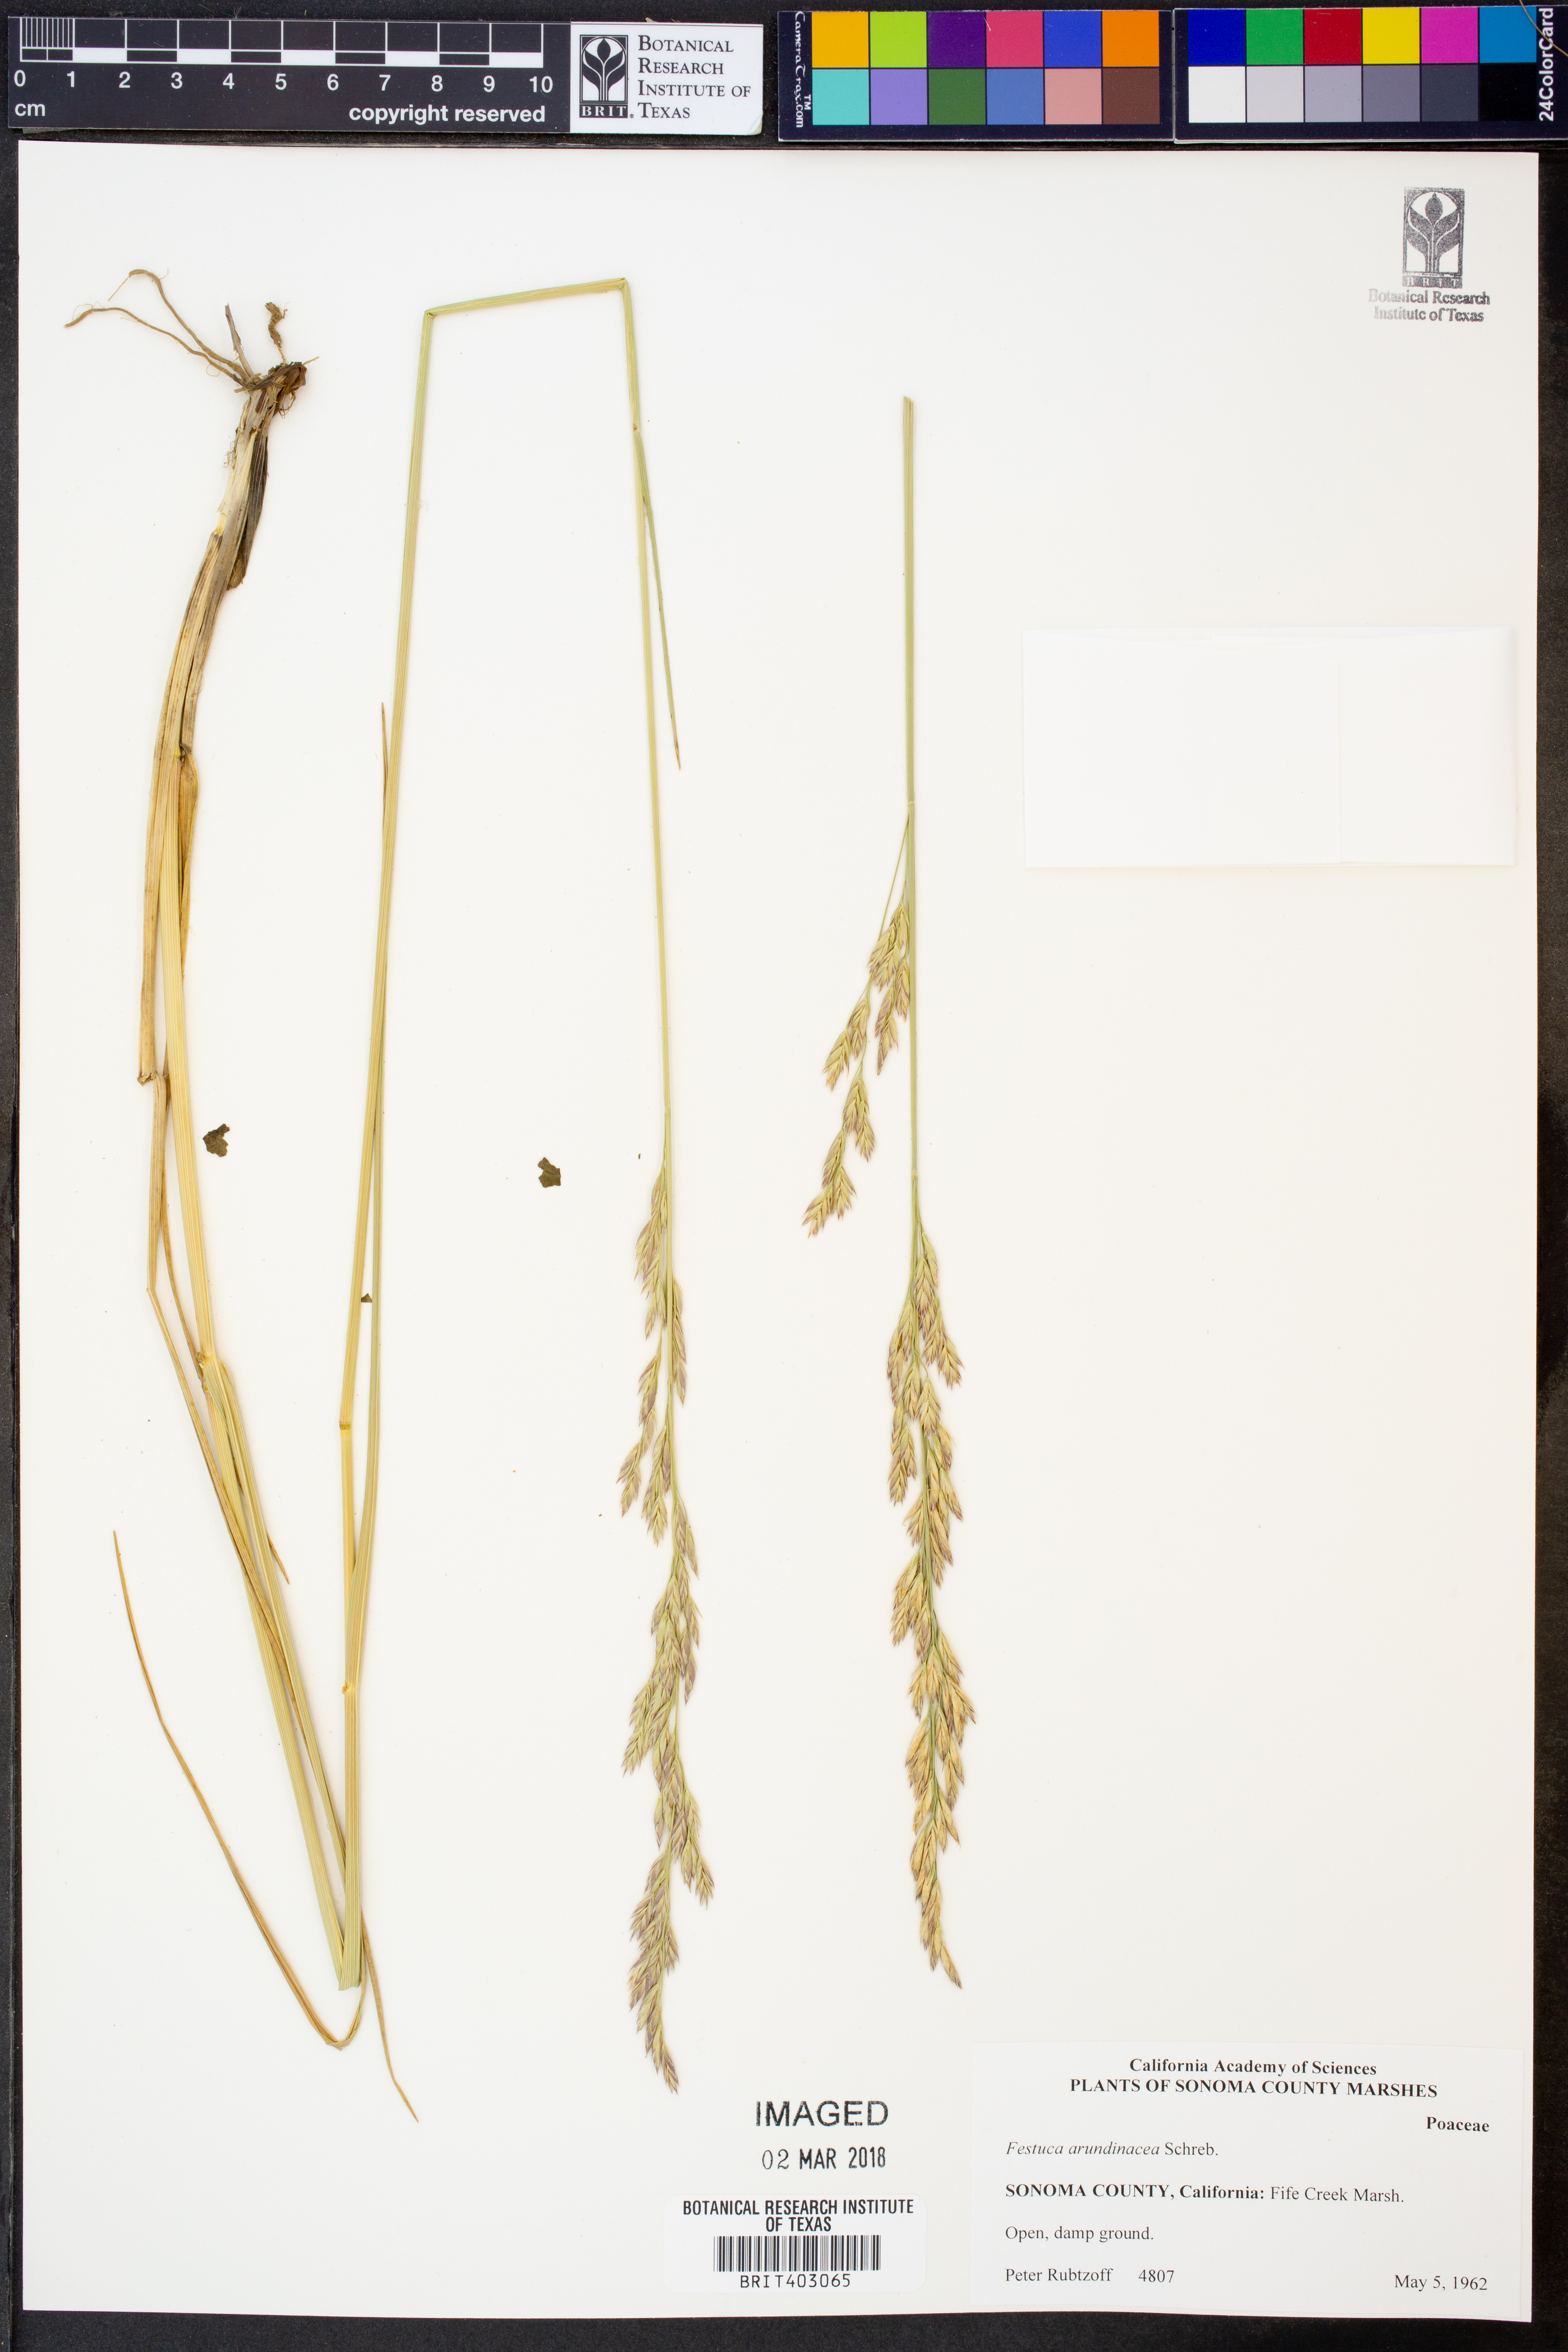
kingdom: Plantae
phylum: Tracheophyta
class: Liliopsida
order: Poales
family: Poaceae
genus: Lolium
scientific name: Lolium arundinaceum
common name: Reed fescue
